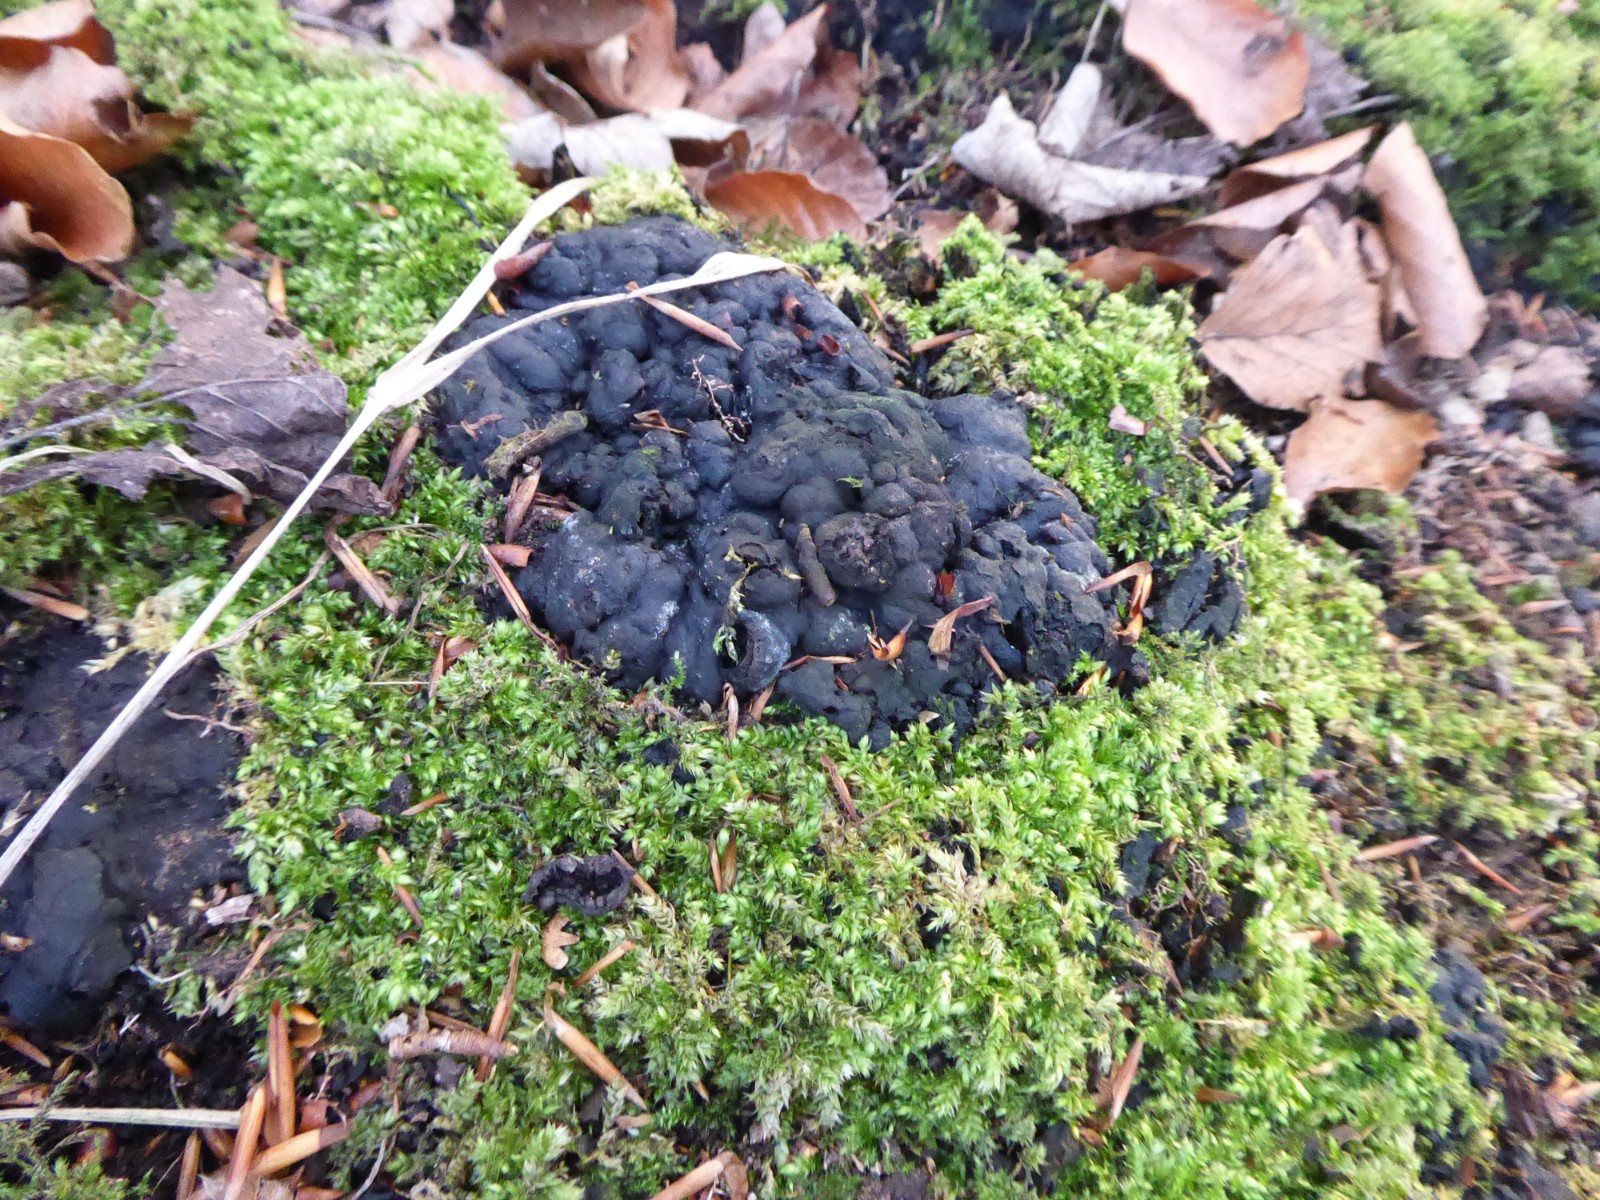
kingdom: Fungi
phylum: Ascomycota
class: Sordariomycetes
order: Xylariales
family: Xylariaceae
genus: Kretzschmaria
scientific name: Kretzschmaria deusta
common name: stor kulsvamp
